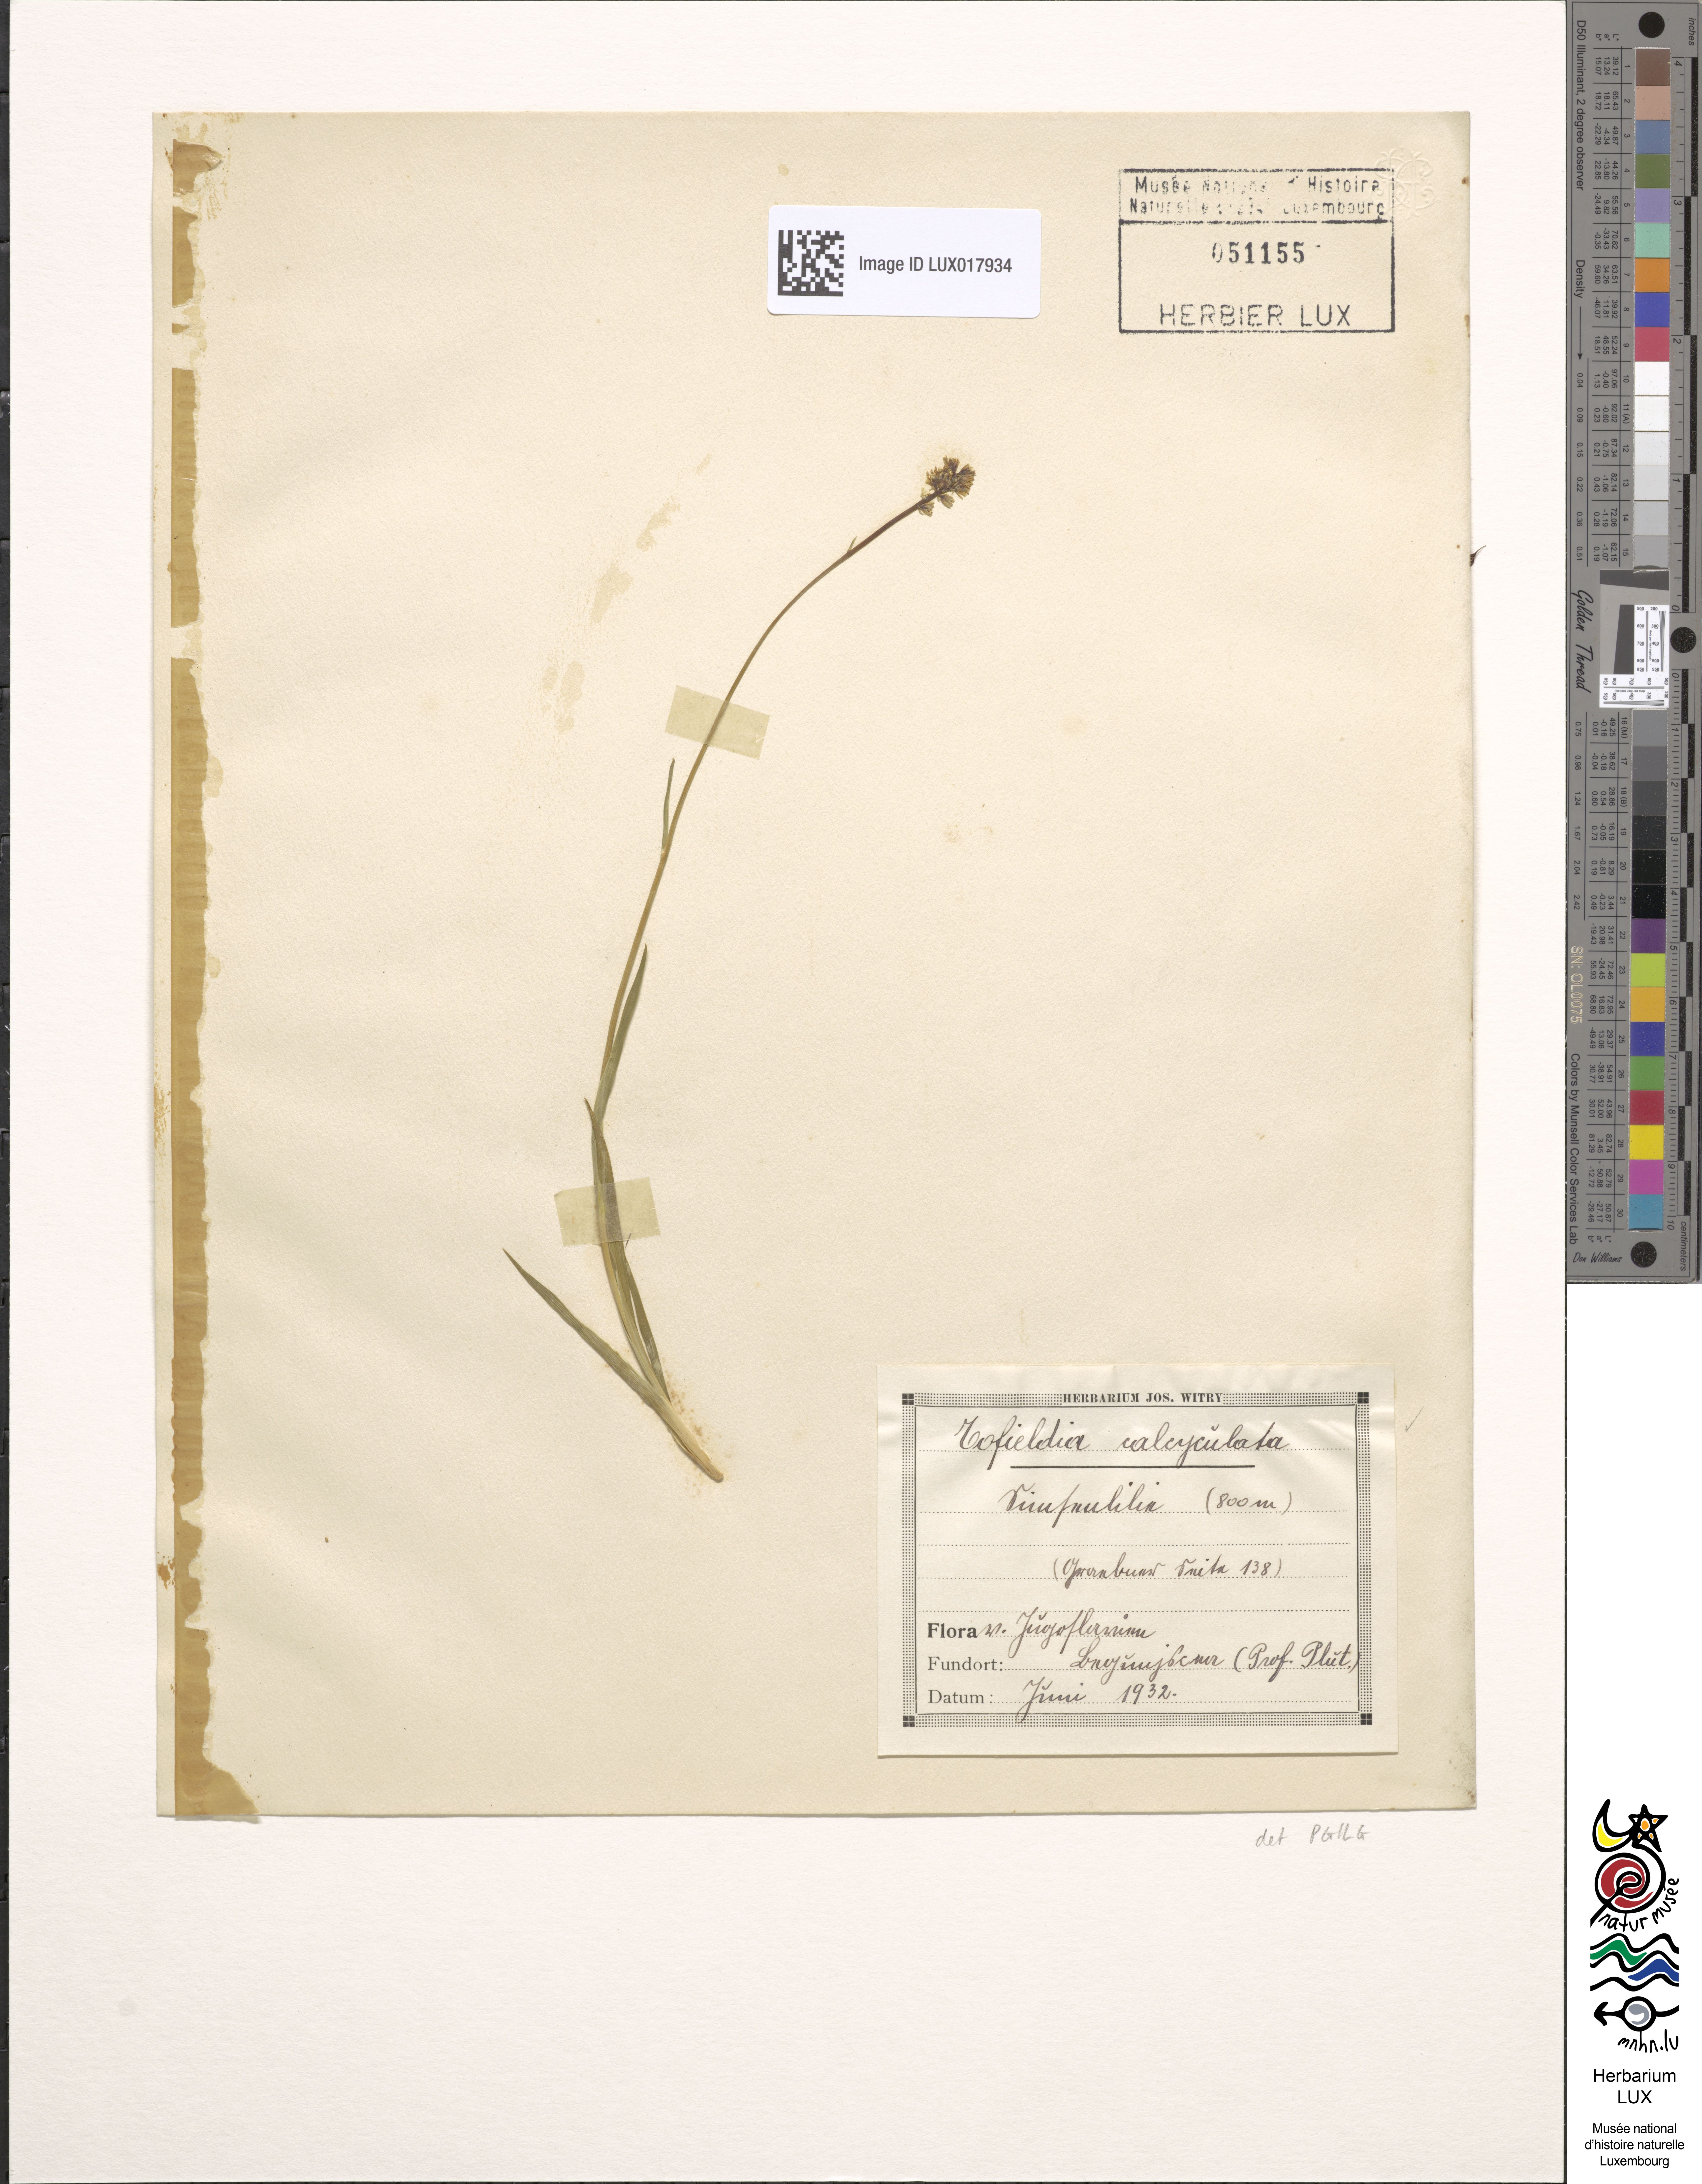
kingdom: Plantae
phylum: Tracheophyta
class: Liliopsida
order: Alismatales
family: Tofieldiaceae
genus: Tofieldia
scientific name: Tofieldia calyculata
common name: German-asphodel
